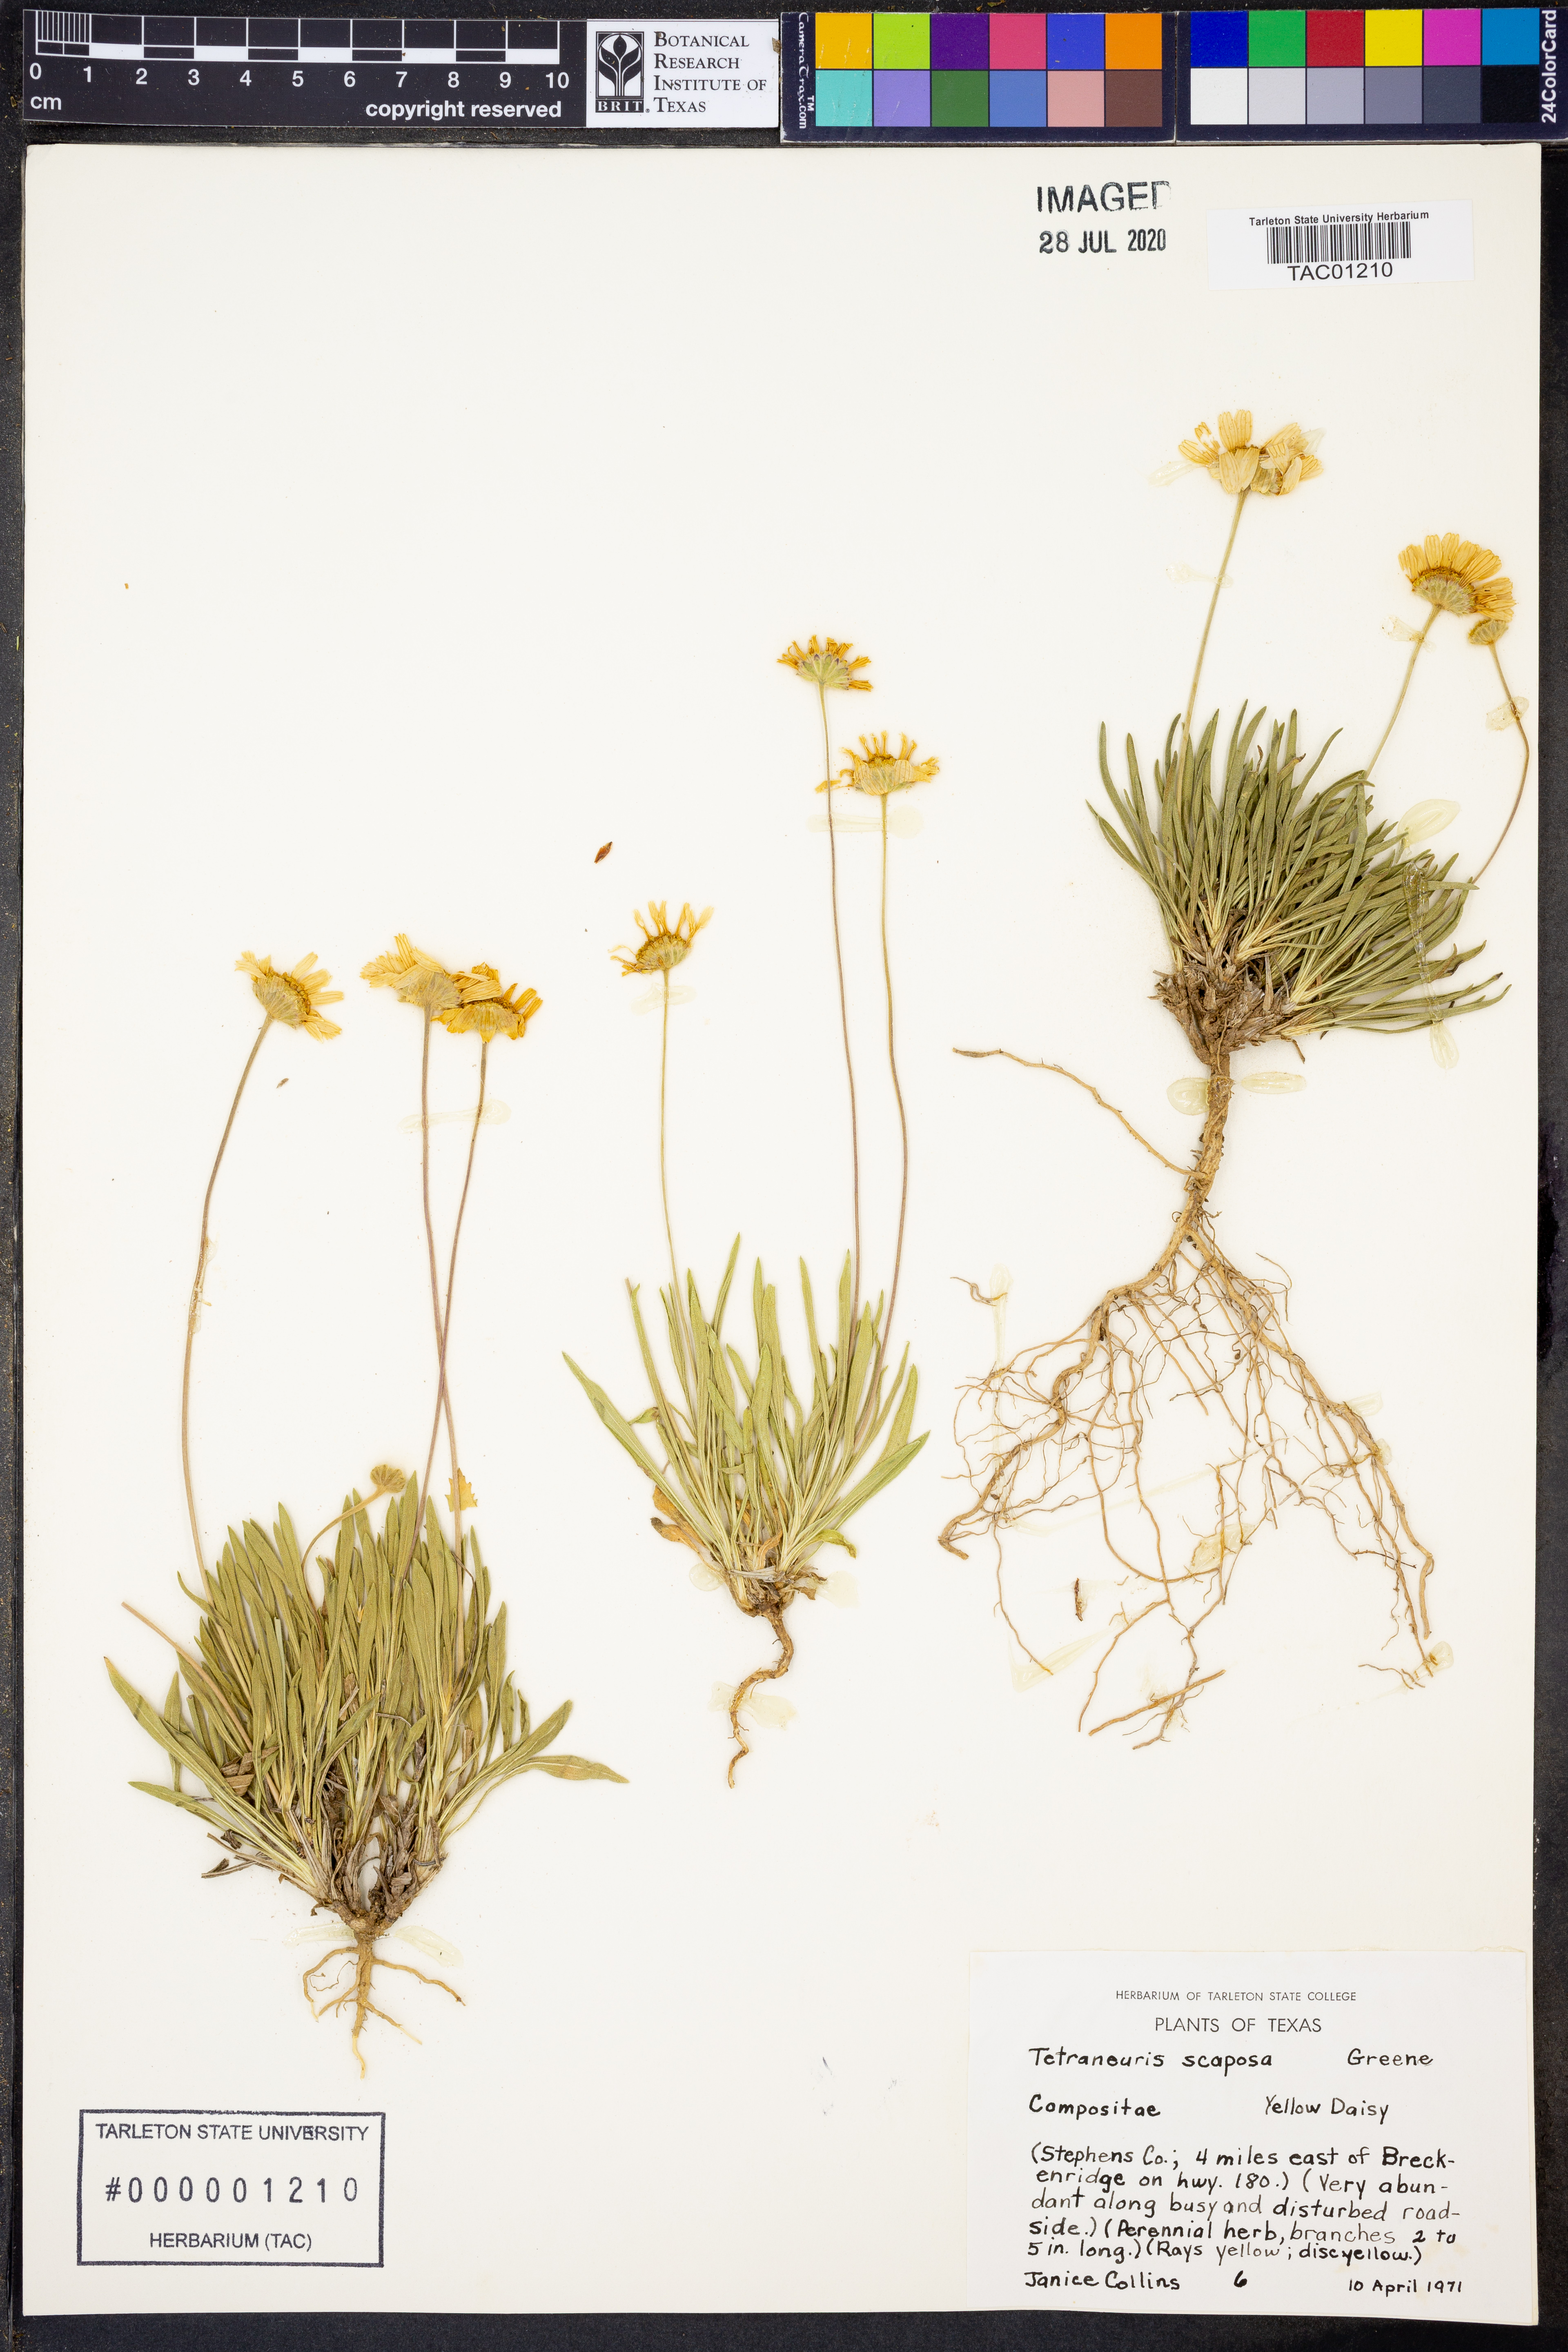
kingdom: Plantae
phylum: Tracheophyta
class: Magnoliopsida
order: Asterales
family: Asteraceae
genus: Tetraneuris
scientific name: Tetraneuris scaposa
